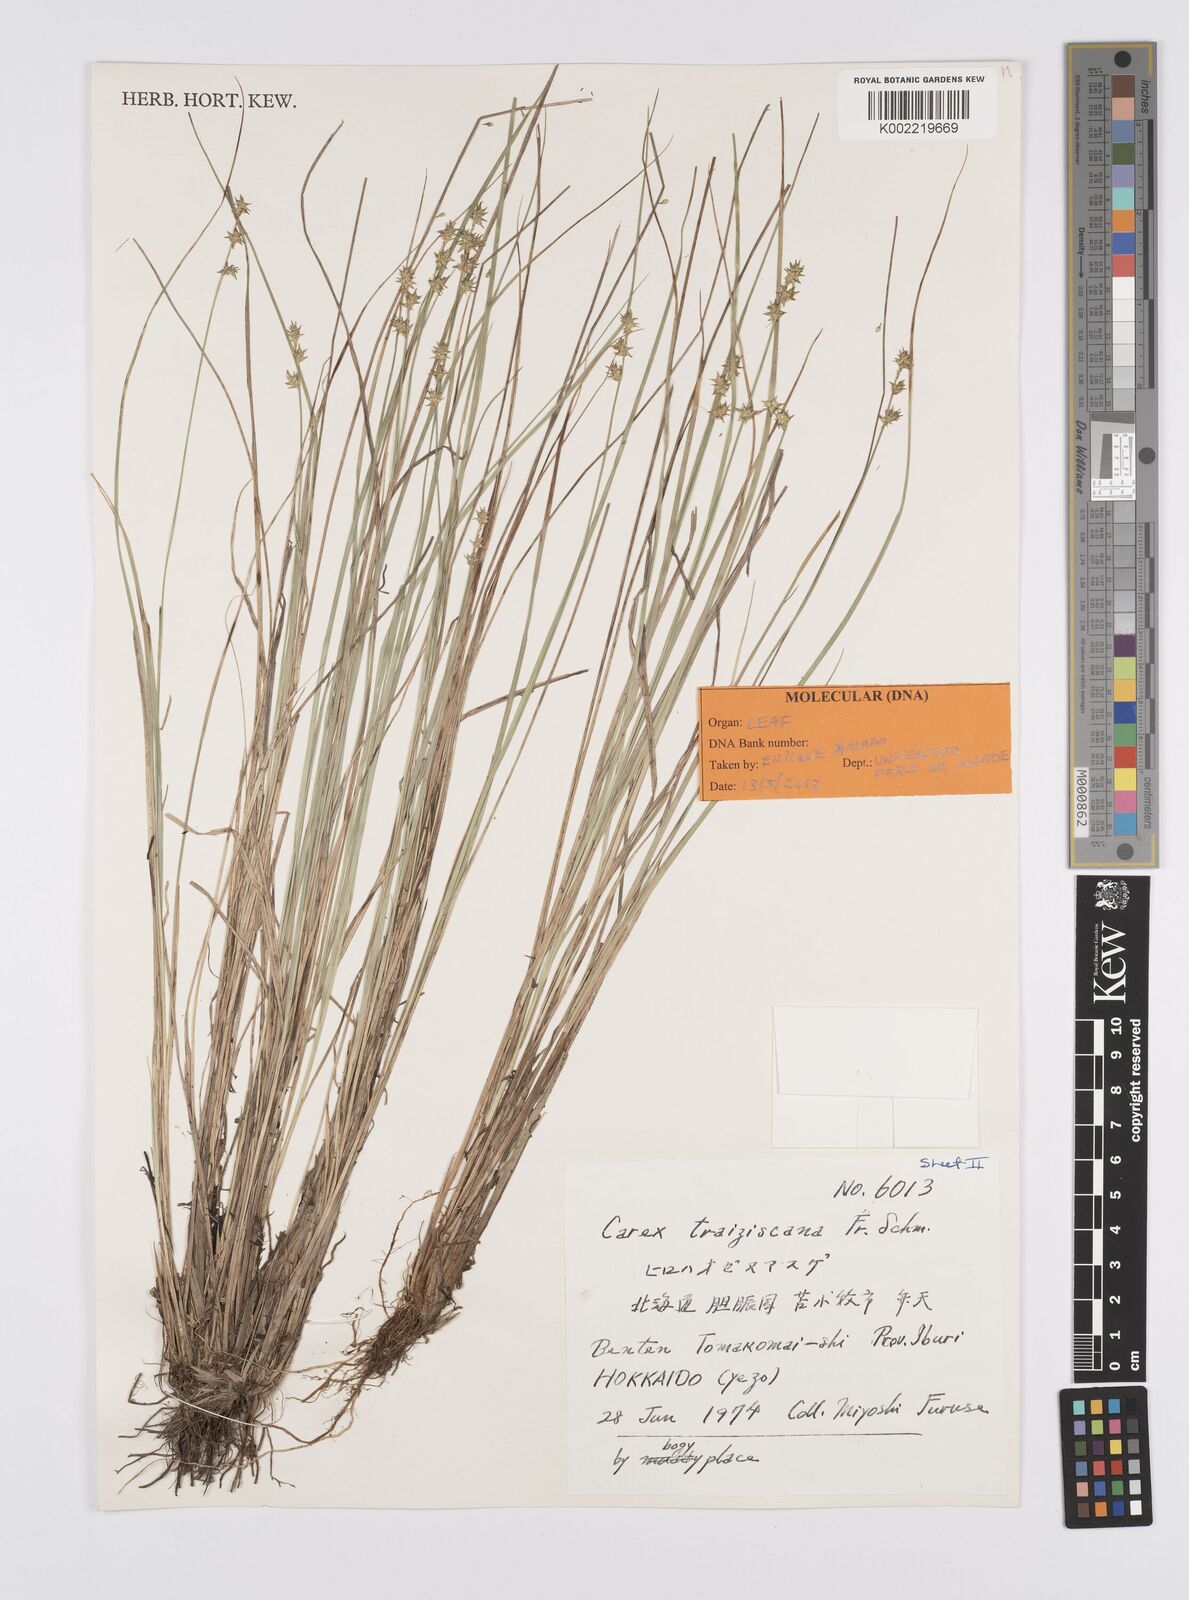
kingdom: Plantae
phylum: Tracheophyta
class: Liliopsida
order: Poales
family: Cyperaceae
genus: Carex
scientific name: Carex traiziscana
